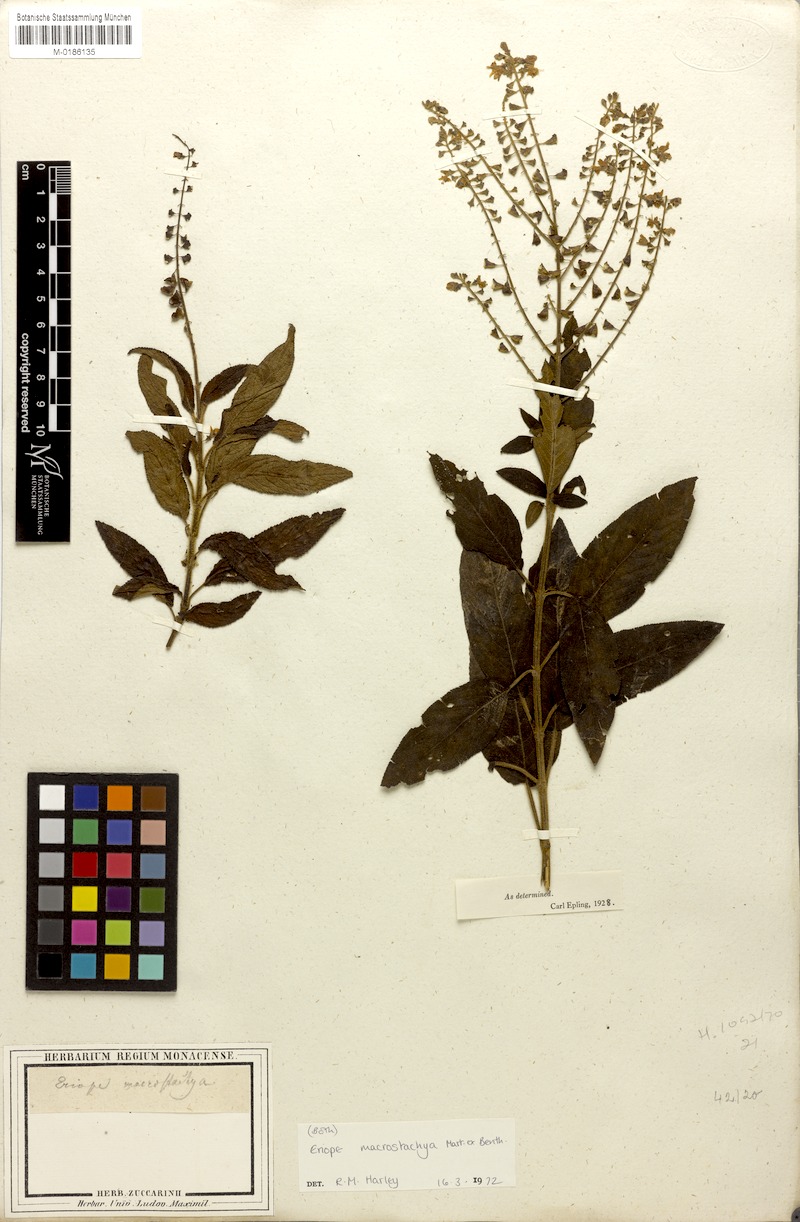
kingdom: Plantae
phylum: Tracheophyta
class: Magnoliopsida
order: Lamiales
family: Lamiaceae
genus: Eriope
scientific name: Eriope macrostachya
